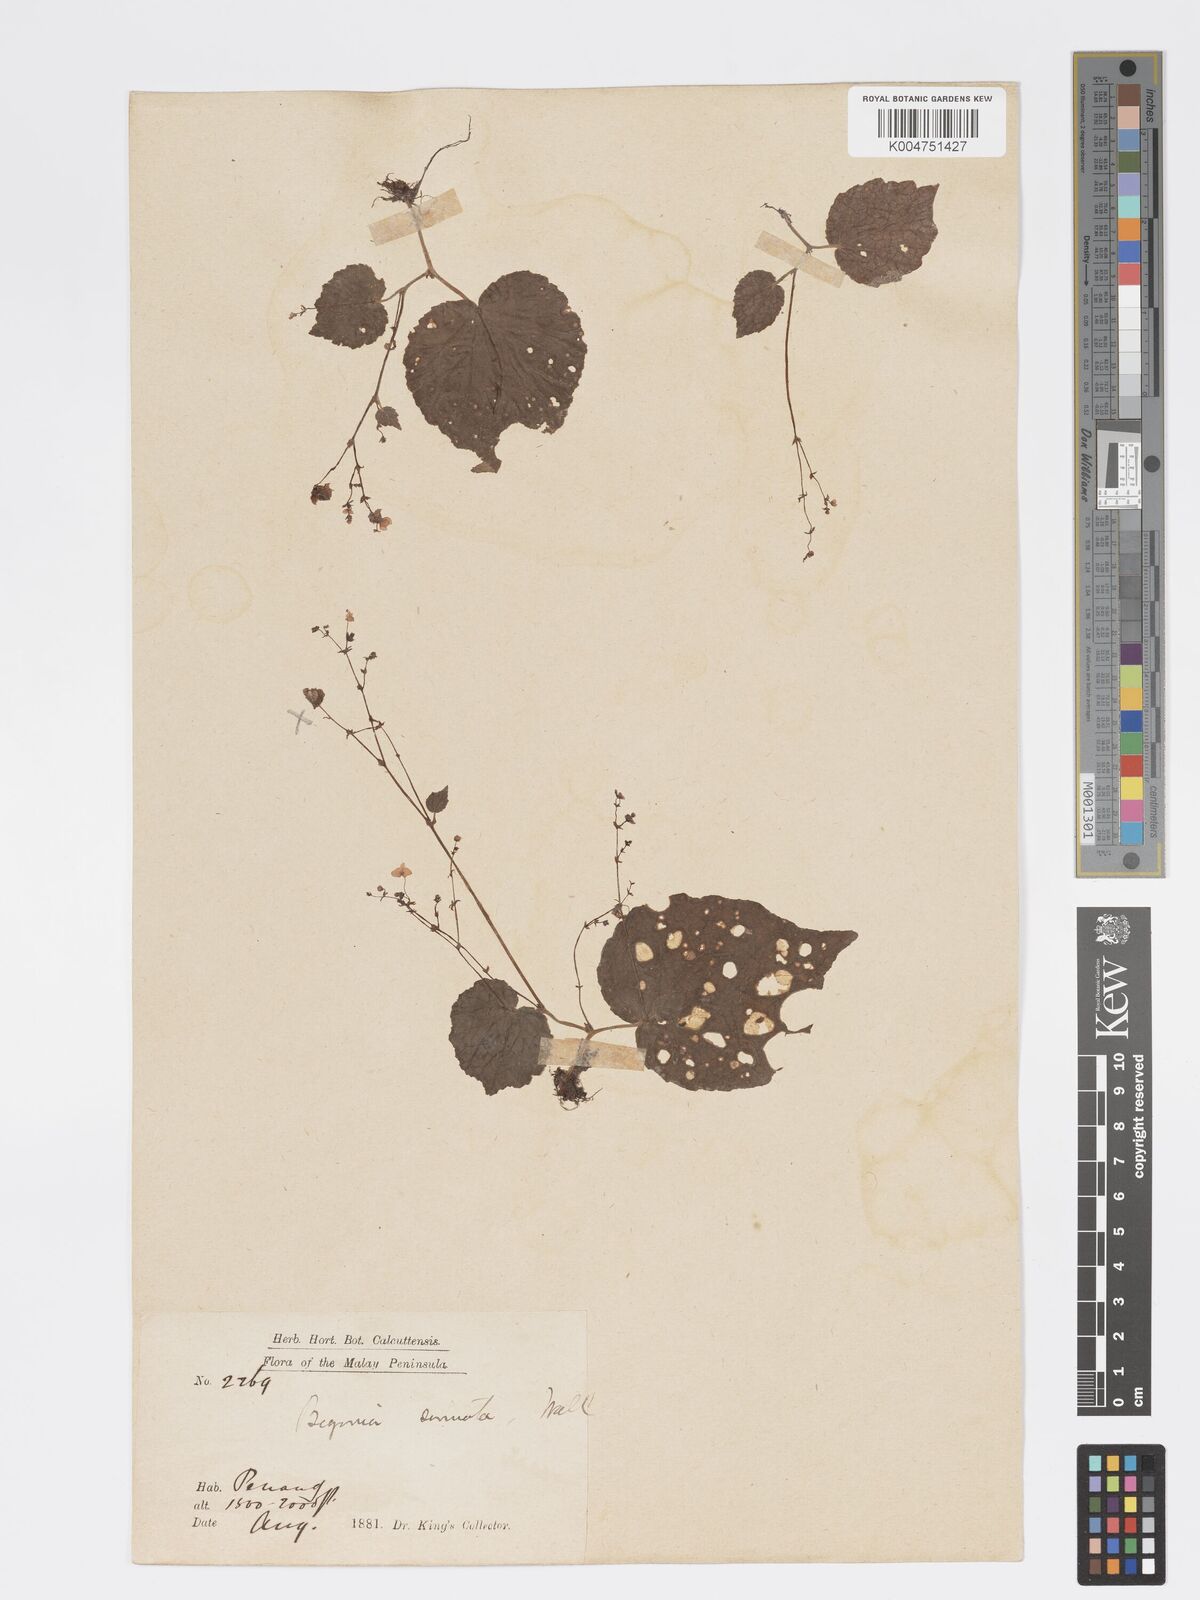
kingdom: Plantae
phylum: Tracheophyta
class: Magnoliopsida
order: Cucurbitales
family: Begoniaceae
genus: Begonia
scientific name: Begonia
